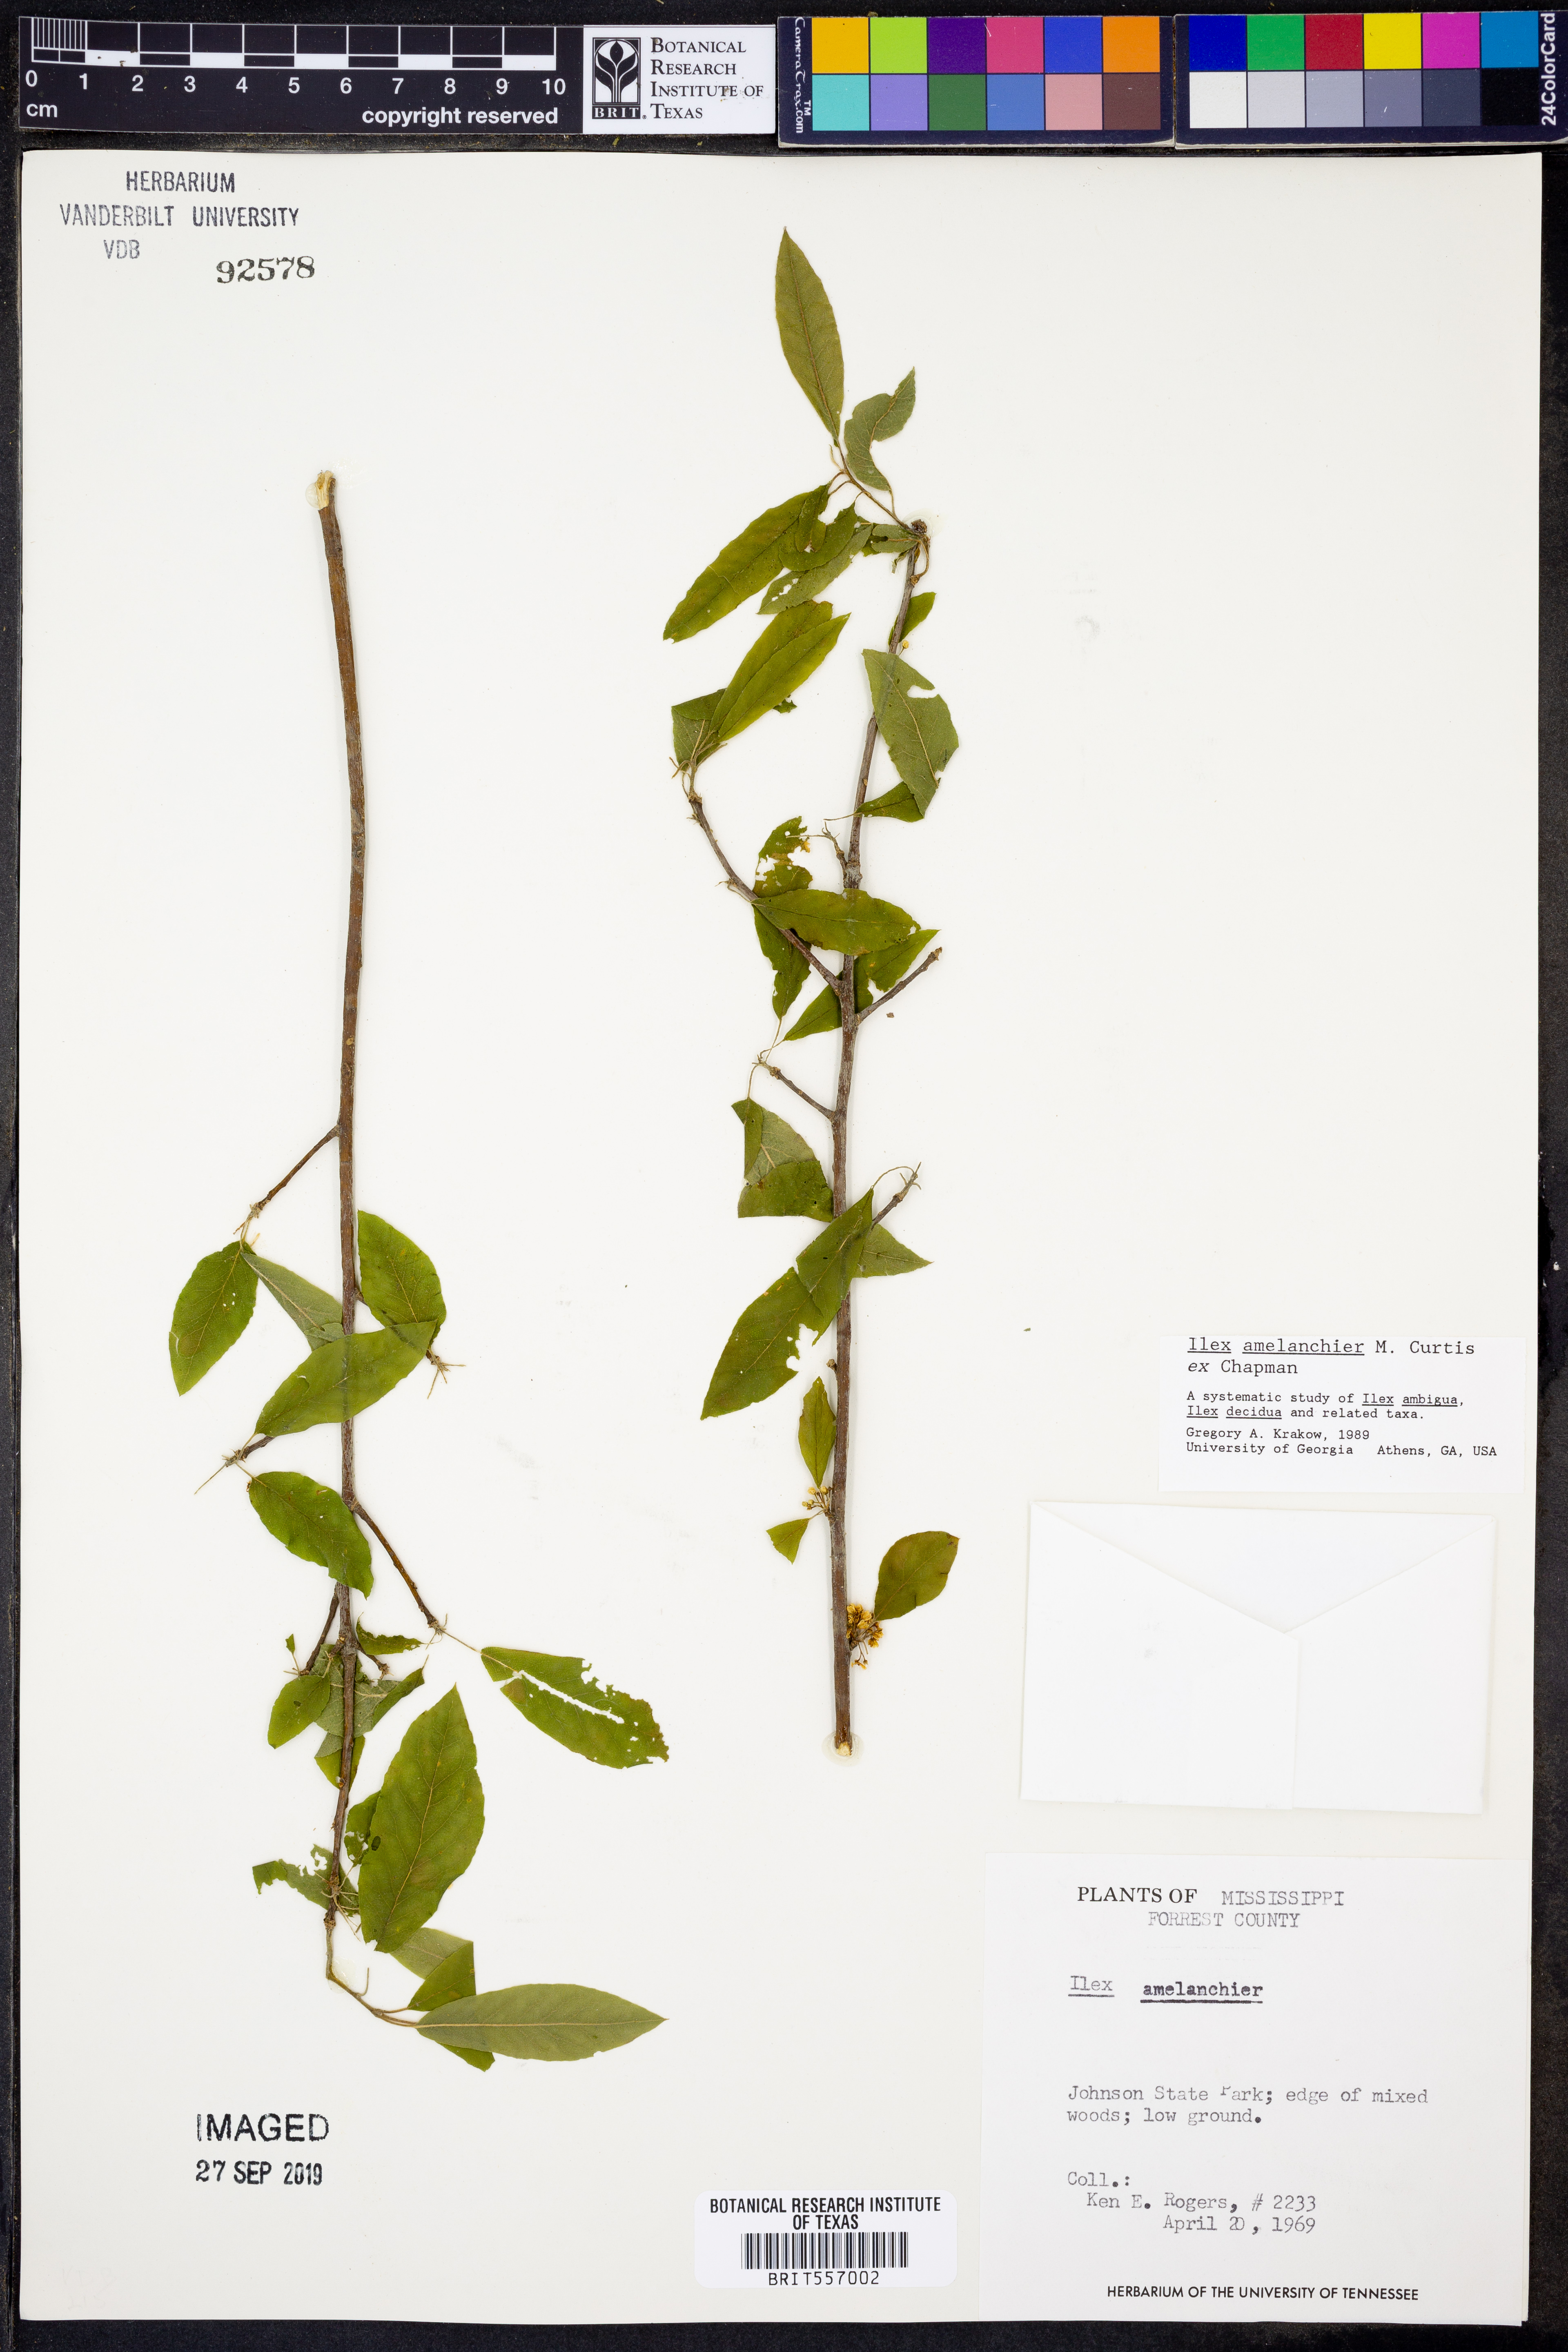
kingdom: Plantae
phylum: Tracheophyta
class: Magnoliopsida
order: Aquifoliales
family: Aquifoliaceae
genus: Ilex
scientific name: Ilex amelanchier
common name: Sarvis holly
